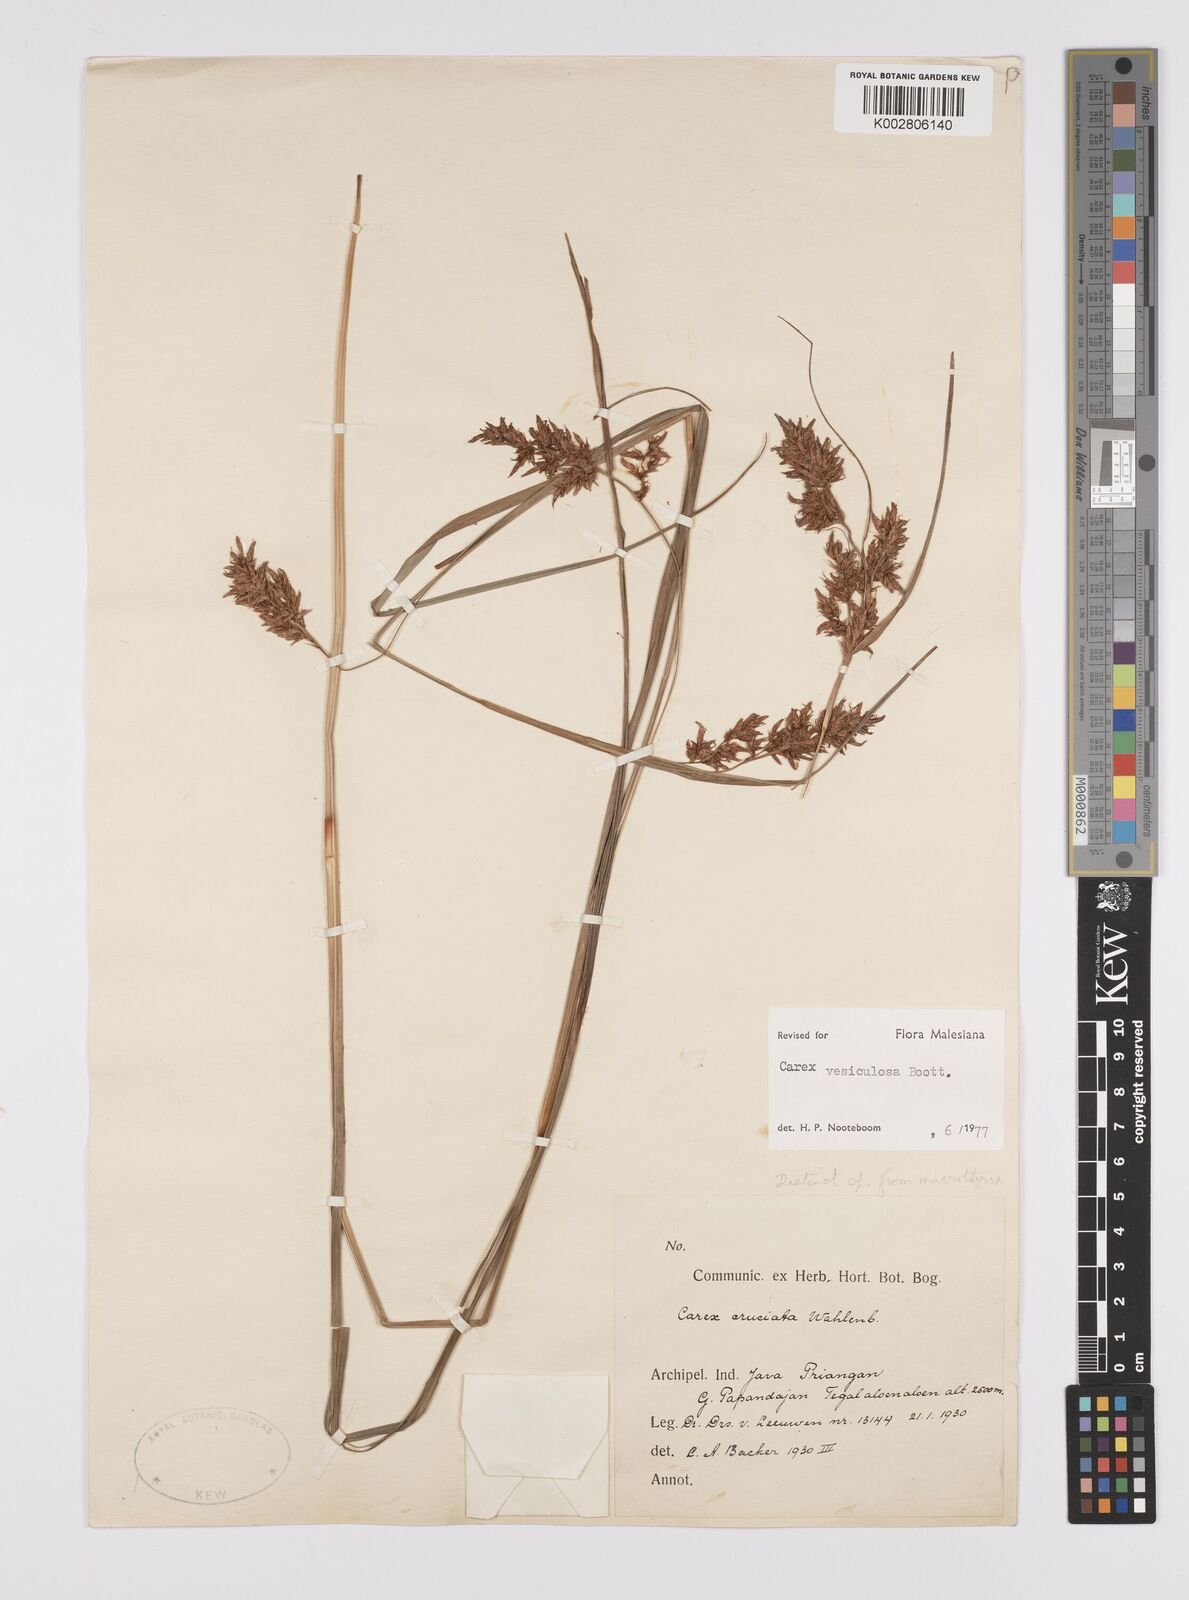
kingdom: Plantae
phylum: Tracheophyta
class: Liliopsida
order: Poales
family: Cyperaceae
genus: Carex
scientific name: Carex vesiculosa
